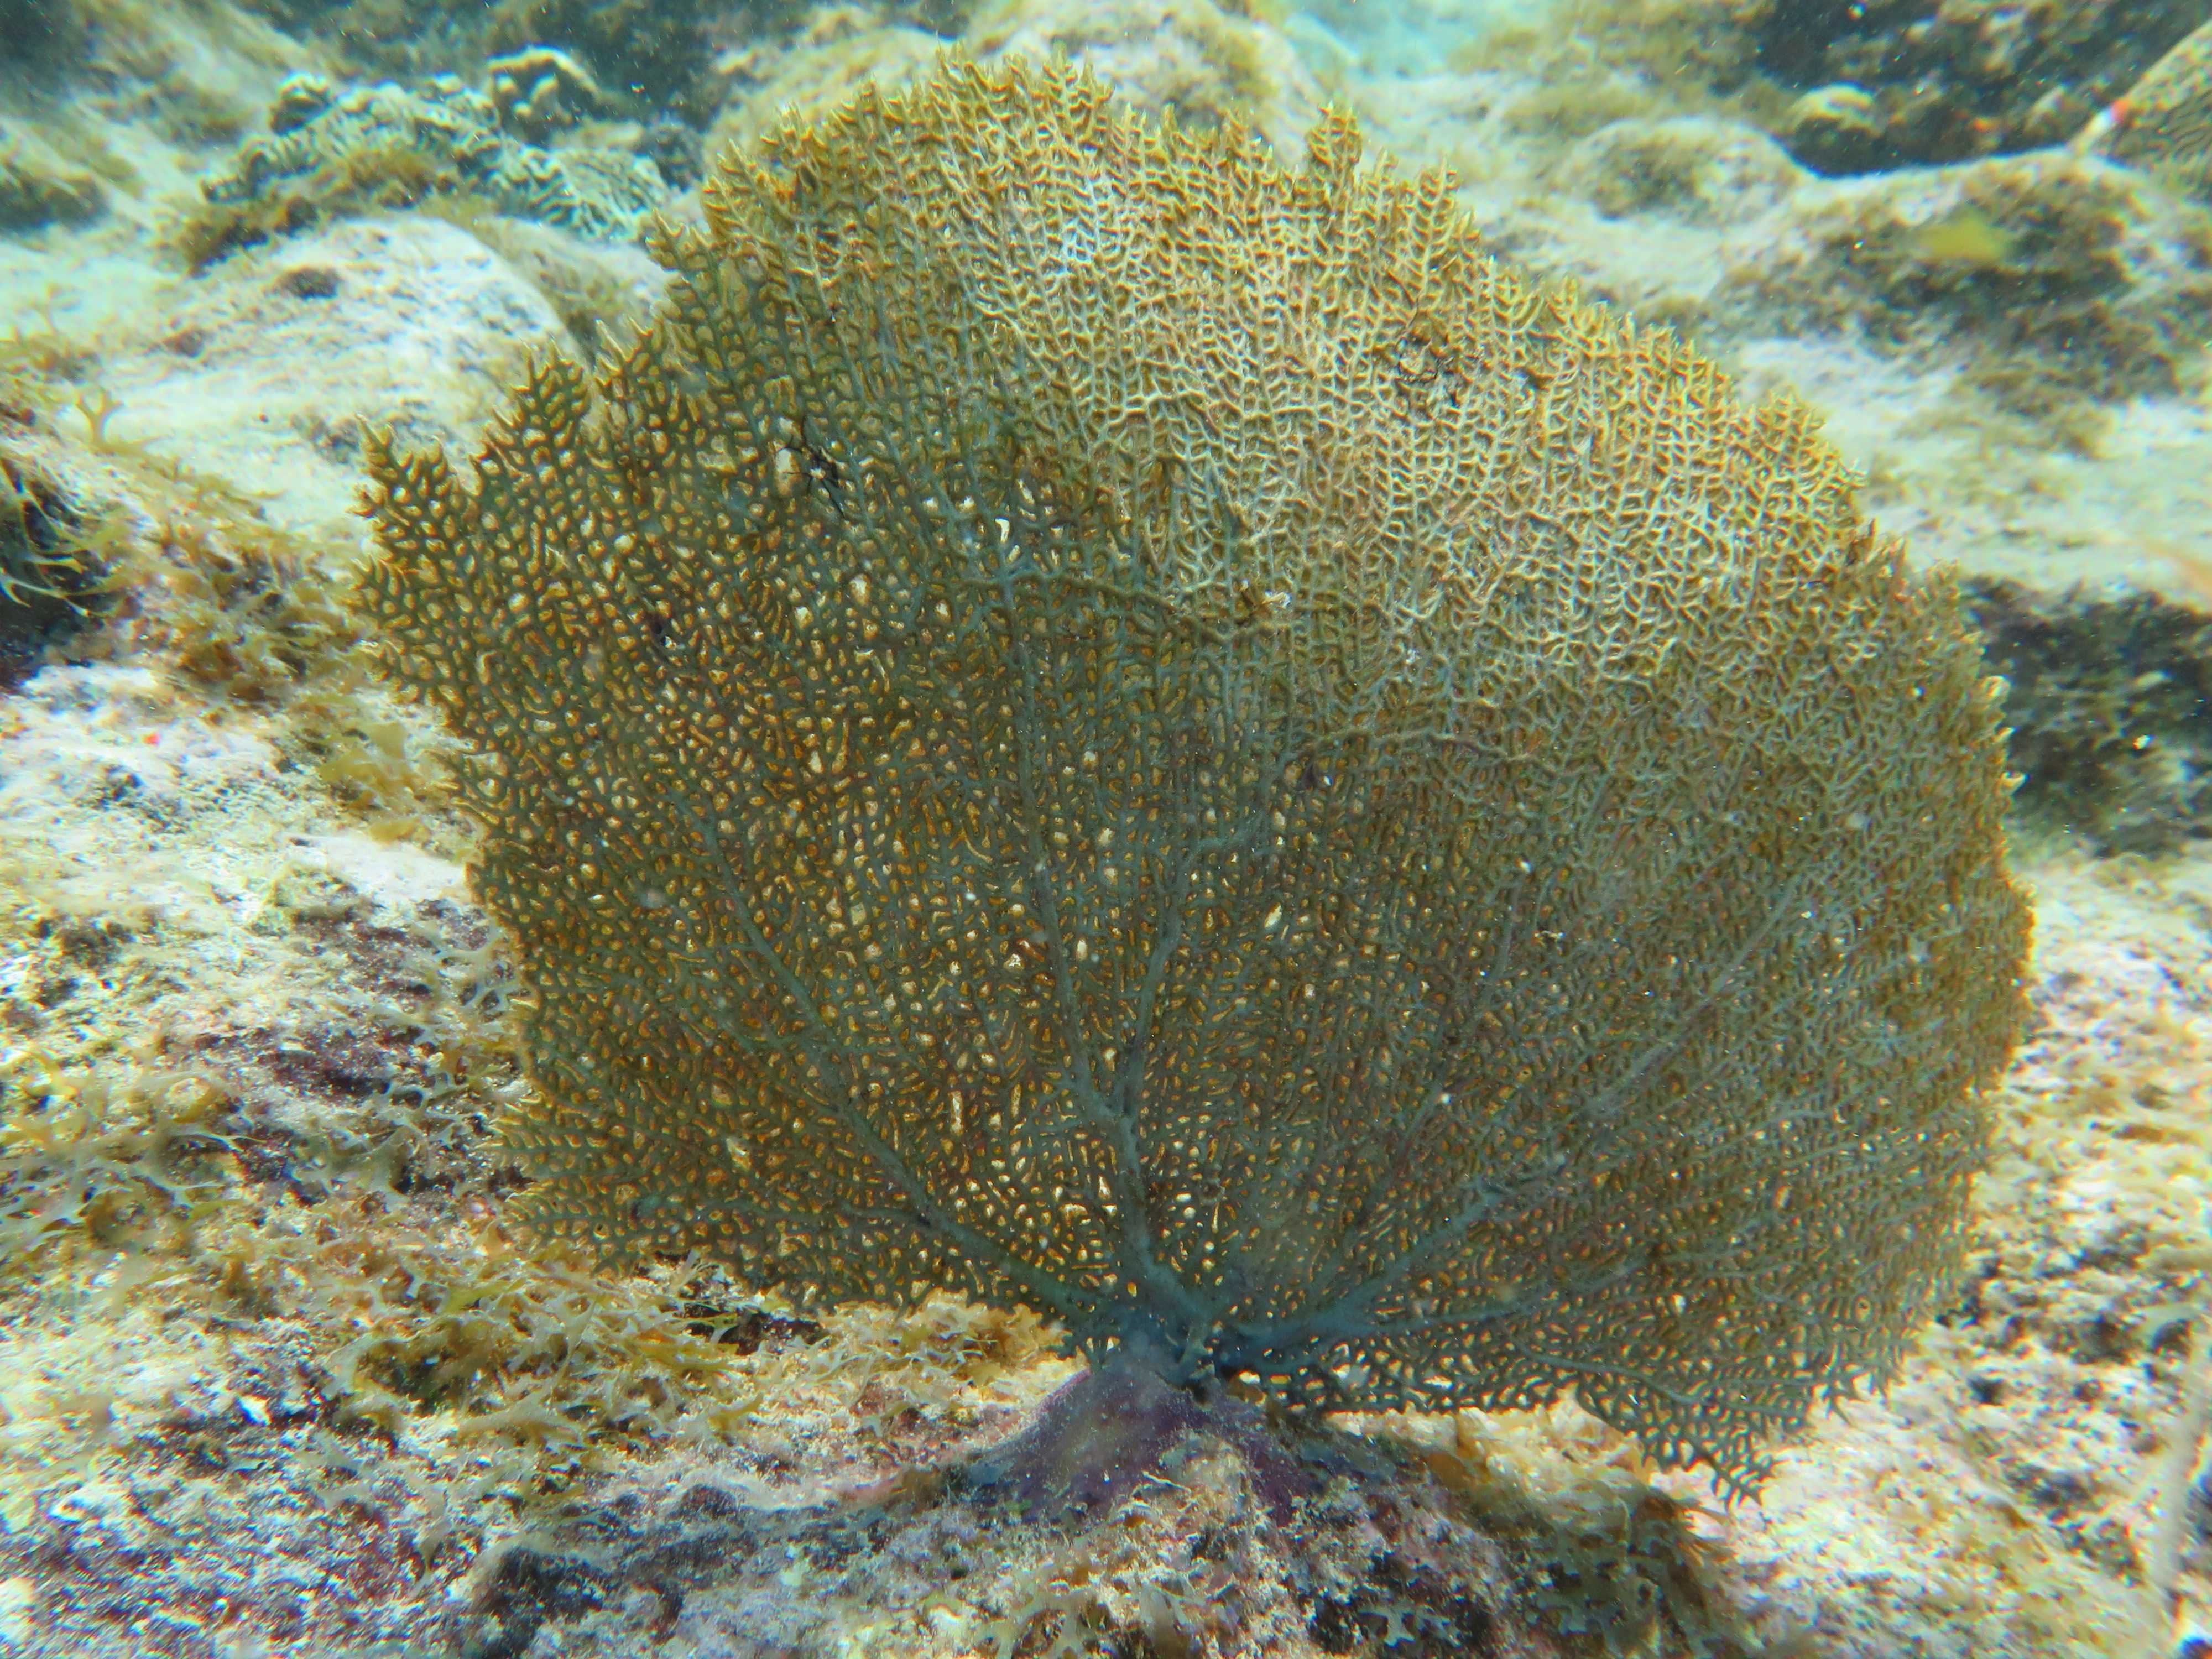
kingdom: Animalia
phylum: Cnidaria
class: Anthozoa
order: Malacalcyonacea
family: Gorgoniidae
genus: Gorgonia
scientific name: Gorgonia
